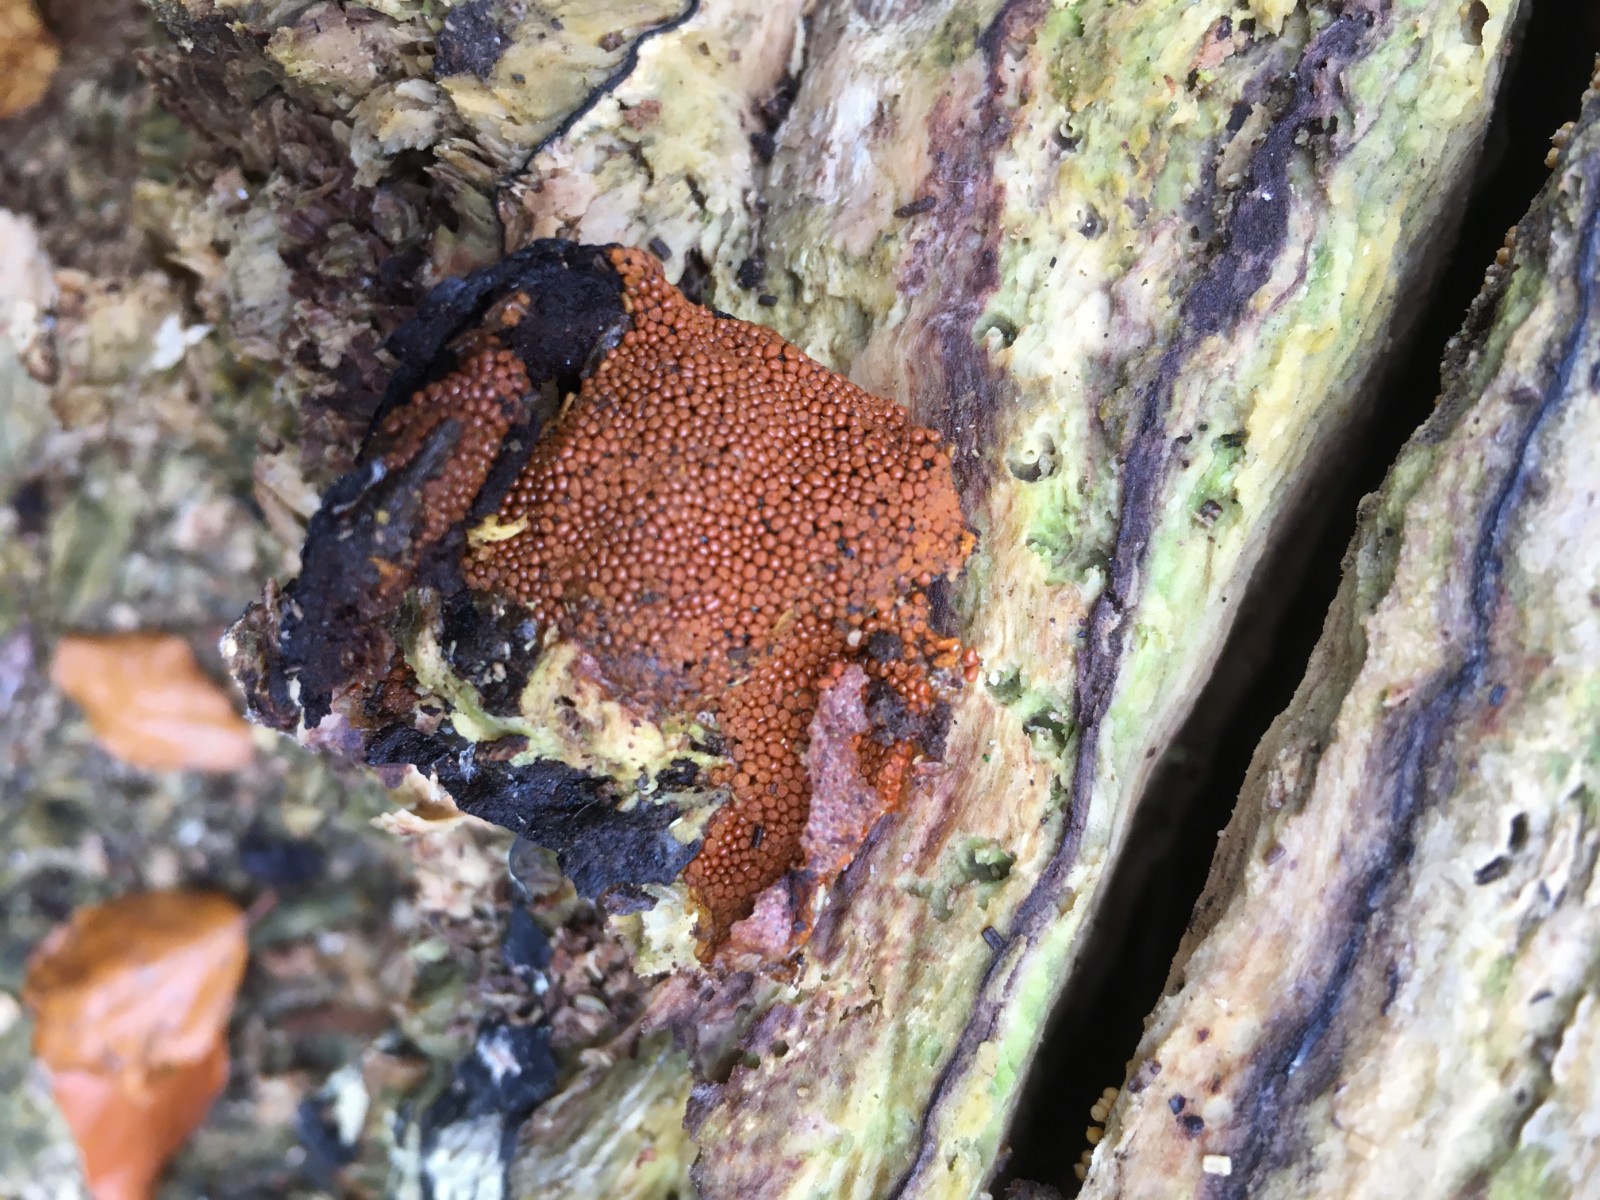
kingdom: Protozoa
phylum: Mycetozoa
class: Myxomycetes
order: Trichiales
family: Trichiaceae
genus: Trichia
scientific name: Trichia scabra
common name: tæppe-hårbold
